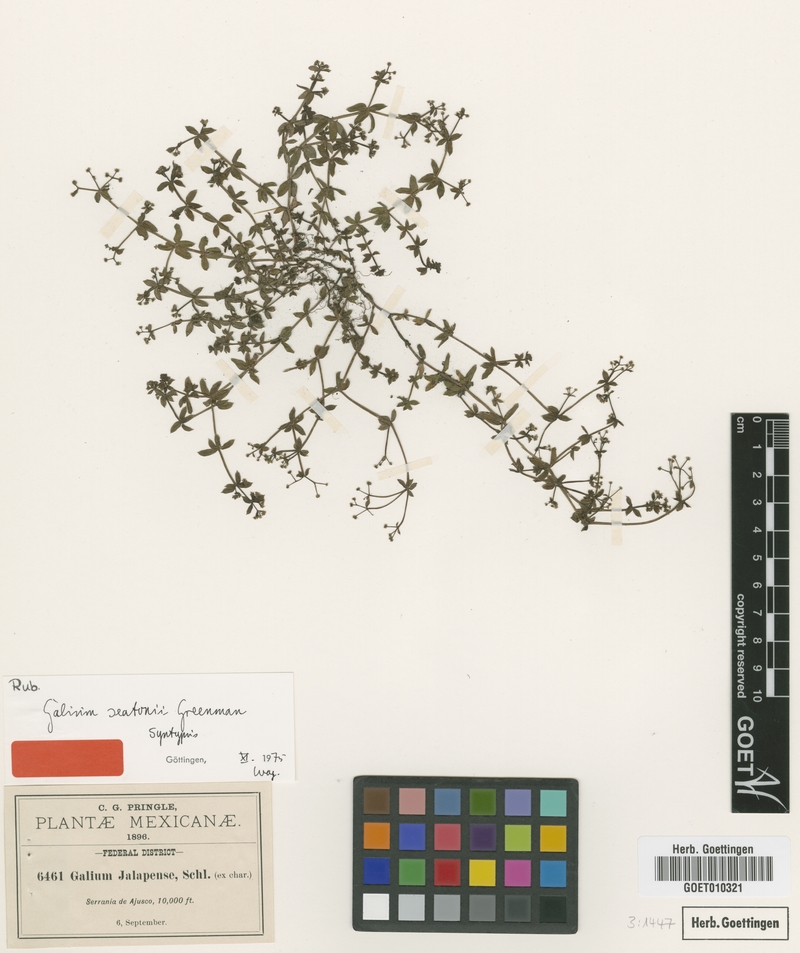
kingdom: Plantae
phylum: Tracheophyta
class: Magnoliopsida
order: Gentianales
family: Rubiaceae
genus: Galium
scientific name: Galium seatonii
